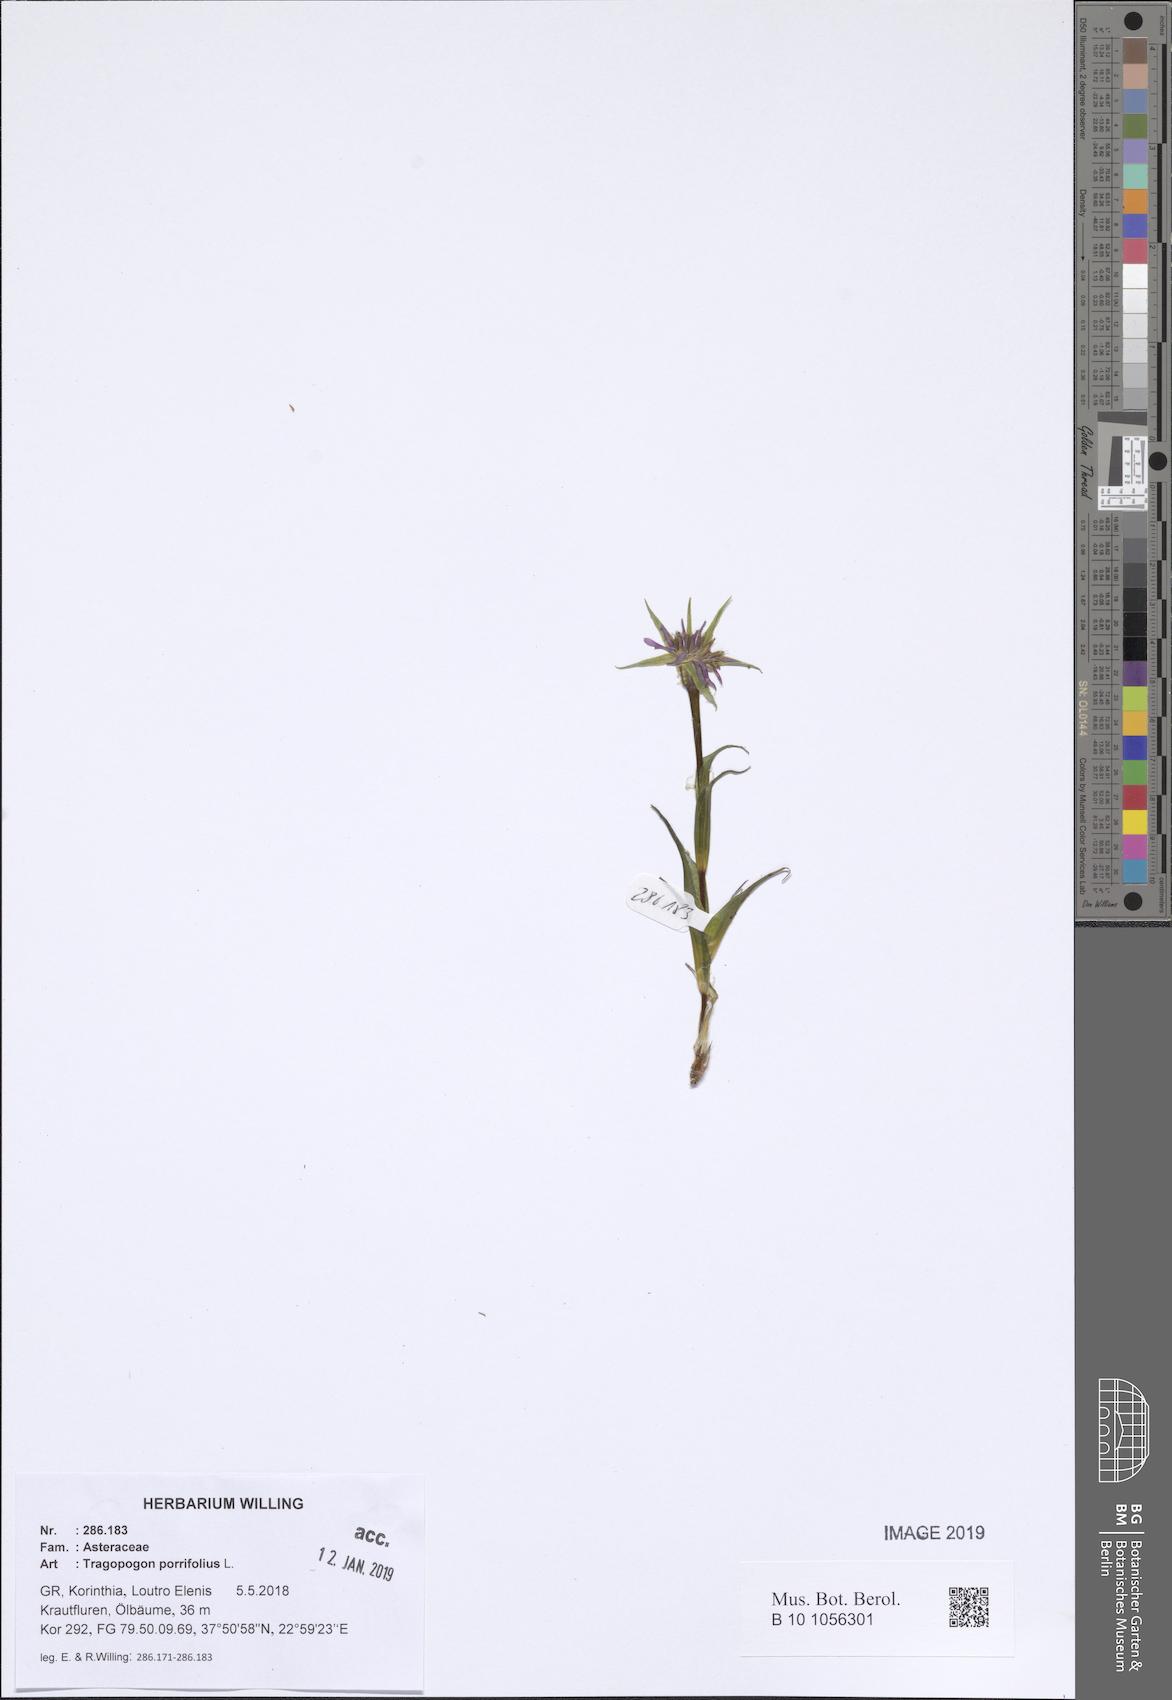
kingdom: Plantae
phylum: Tracheophyta
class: Magnoliopsida
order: Asterales
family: Asteraceae
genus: Tragopogon
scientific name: Tragopogon porrifolius
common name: Salsify
